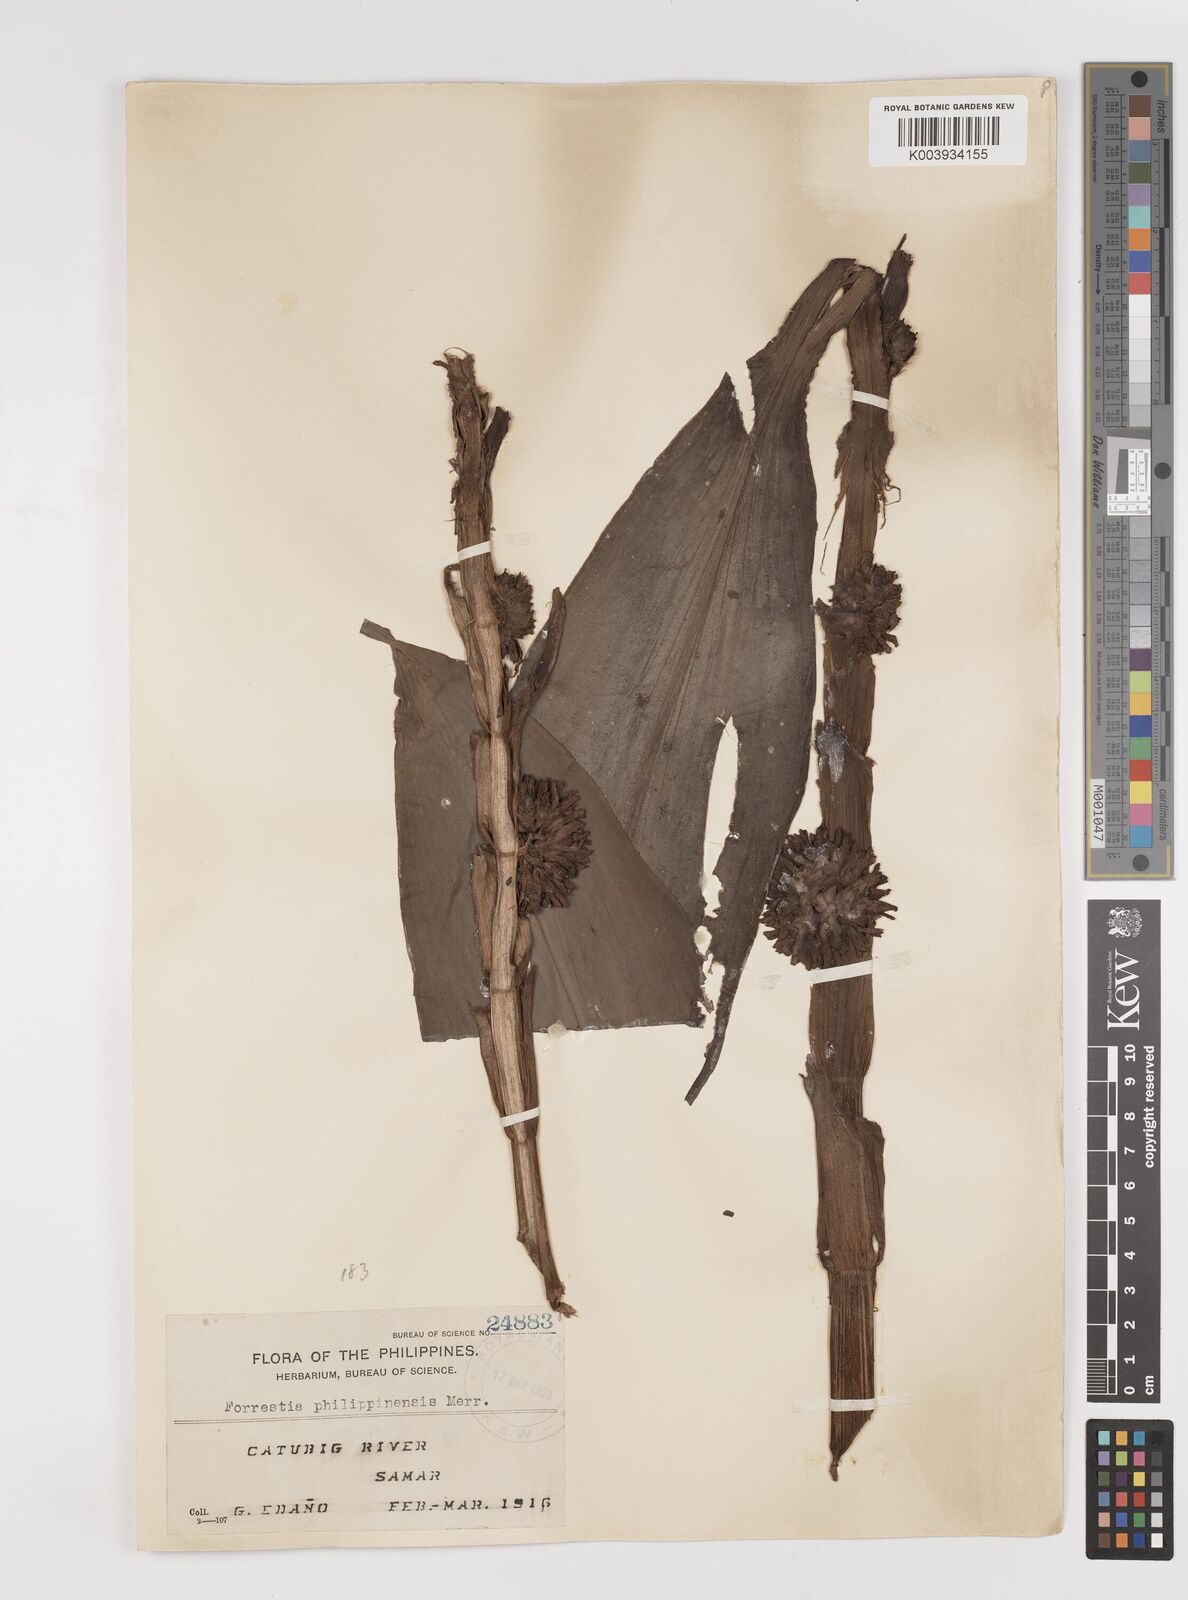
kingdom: Plantae
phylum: Tracheophyta
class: Liliopsida
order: Commelinales
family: Commelinaceae
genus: Amischotolype
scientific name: Amischotolype
